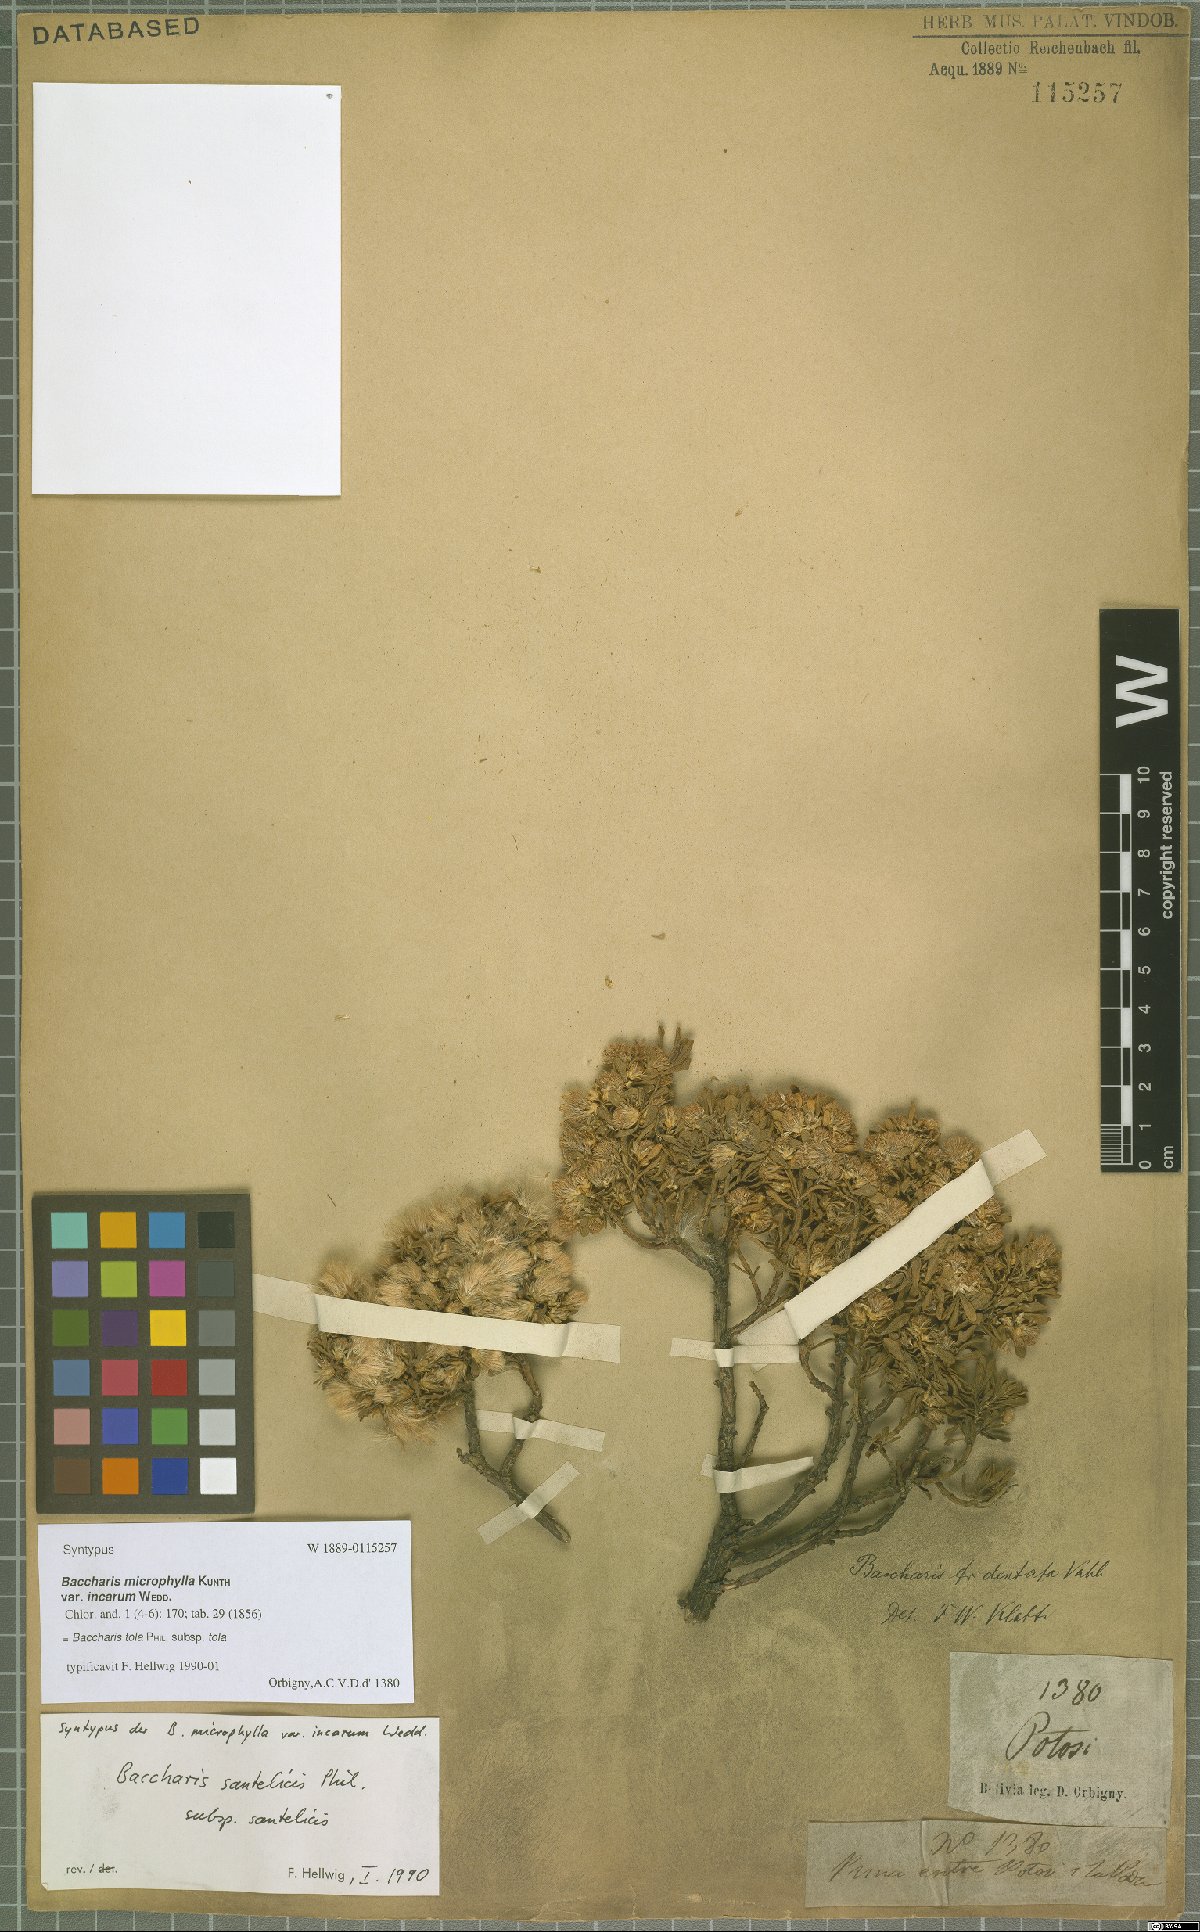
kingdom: Plantae
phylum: Tracheophyta
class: Magnoliopsida
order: Asterales
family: Asteraceae
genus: Baccharis
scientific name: Baccharis tola
